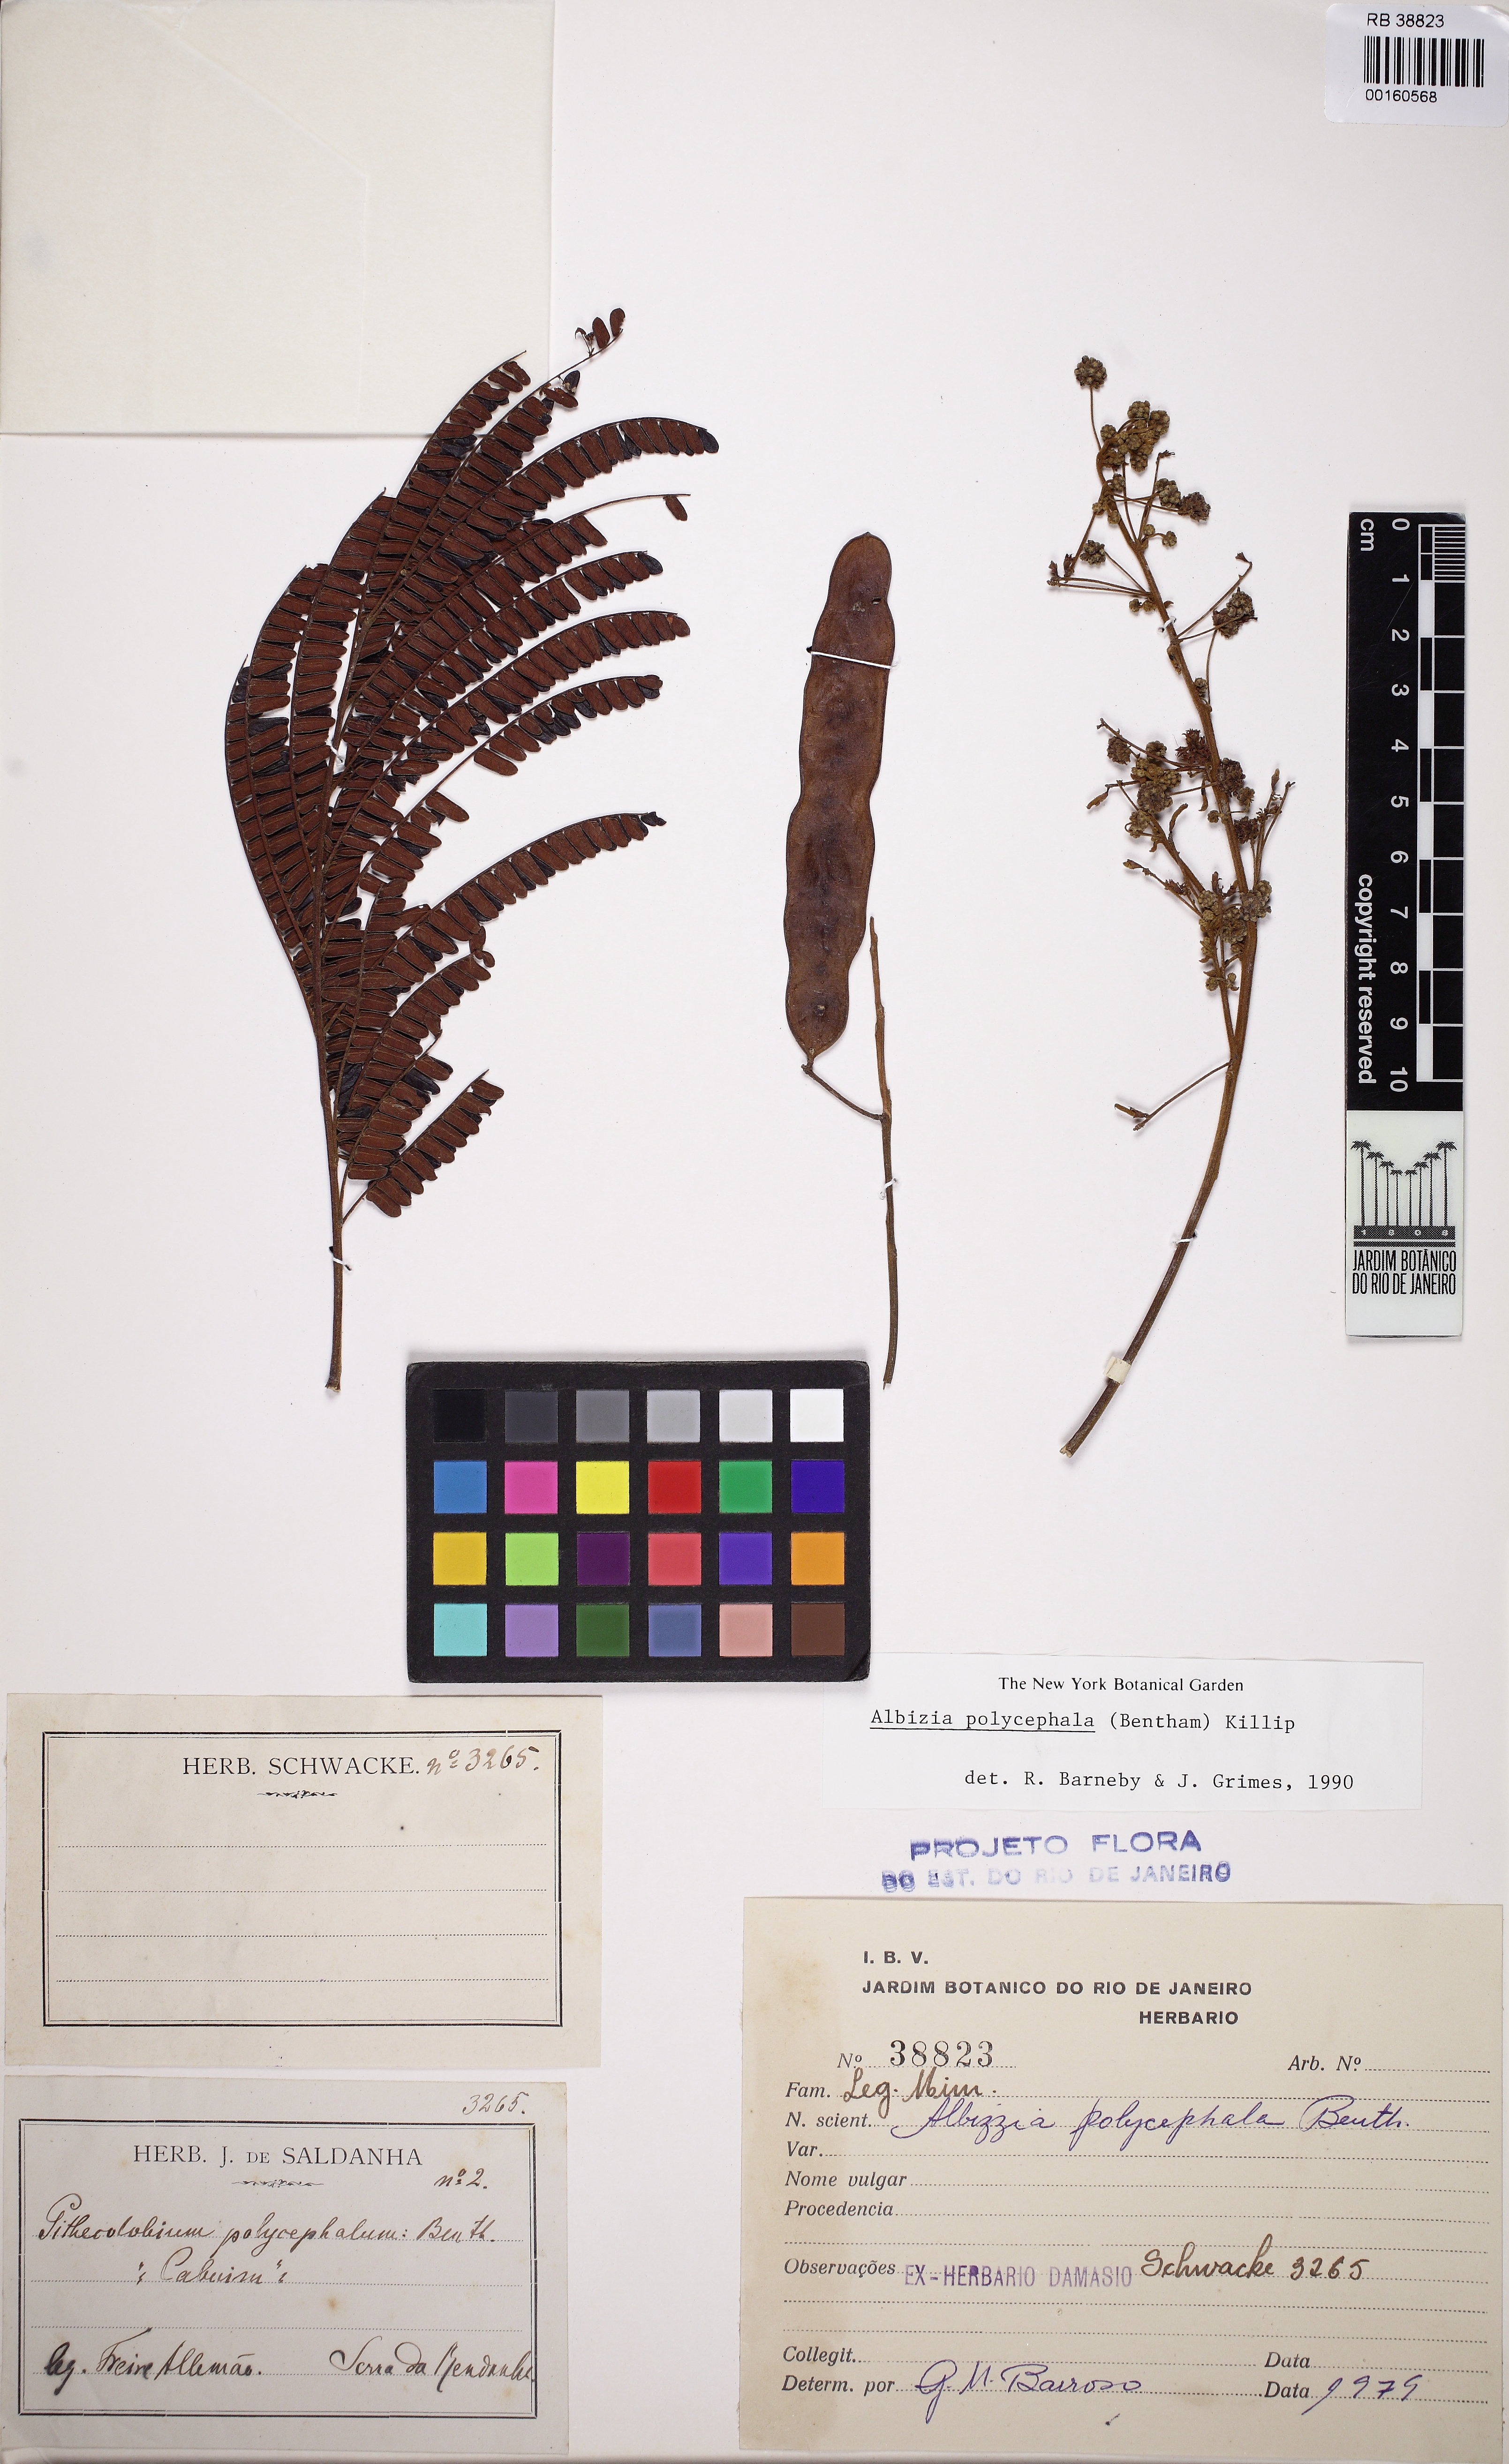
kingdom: Plantae
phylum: Tracheophyta
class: Magnoliopsida
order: Fabales
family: Fabaceae
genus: Albizia
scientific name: Albizia polycephala
